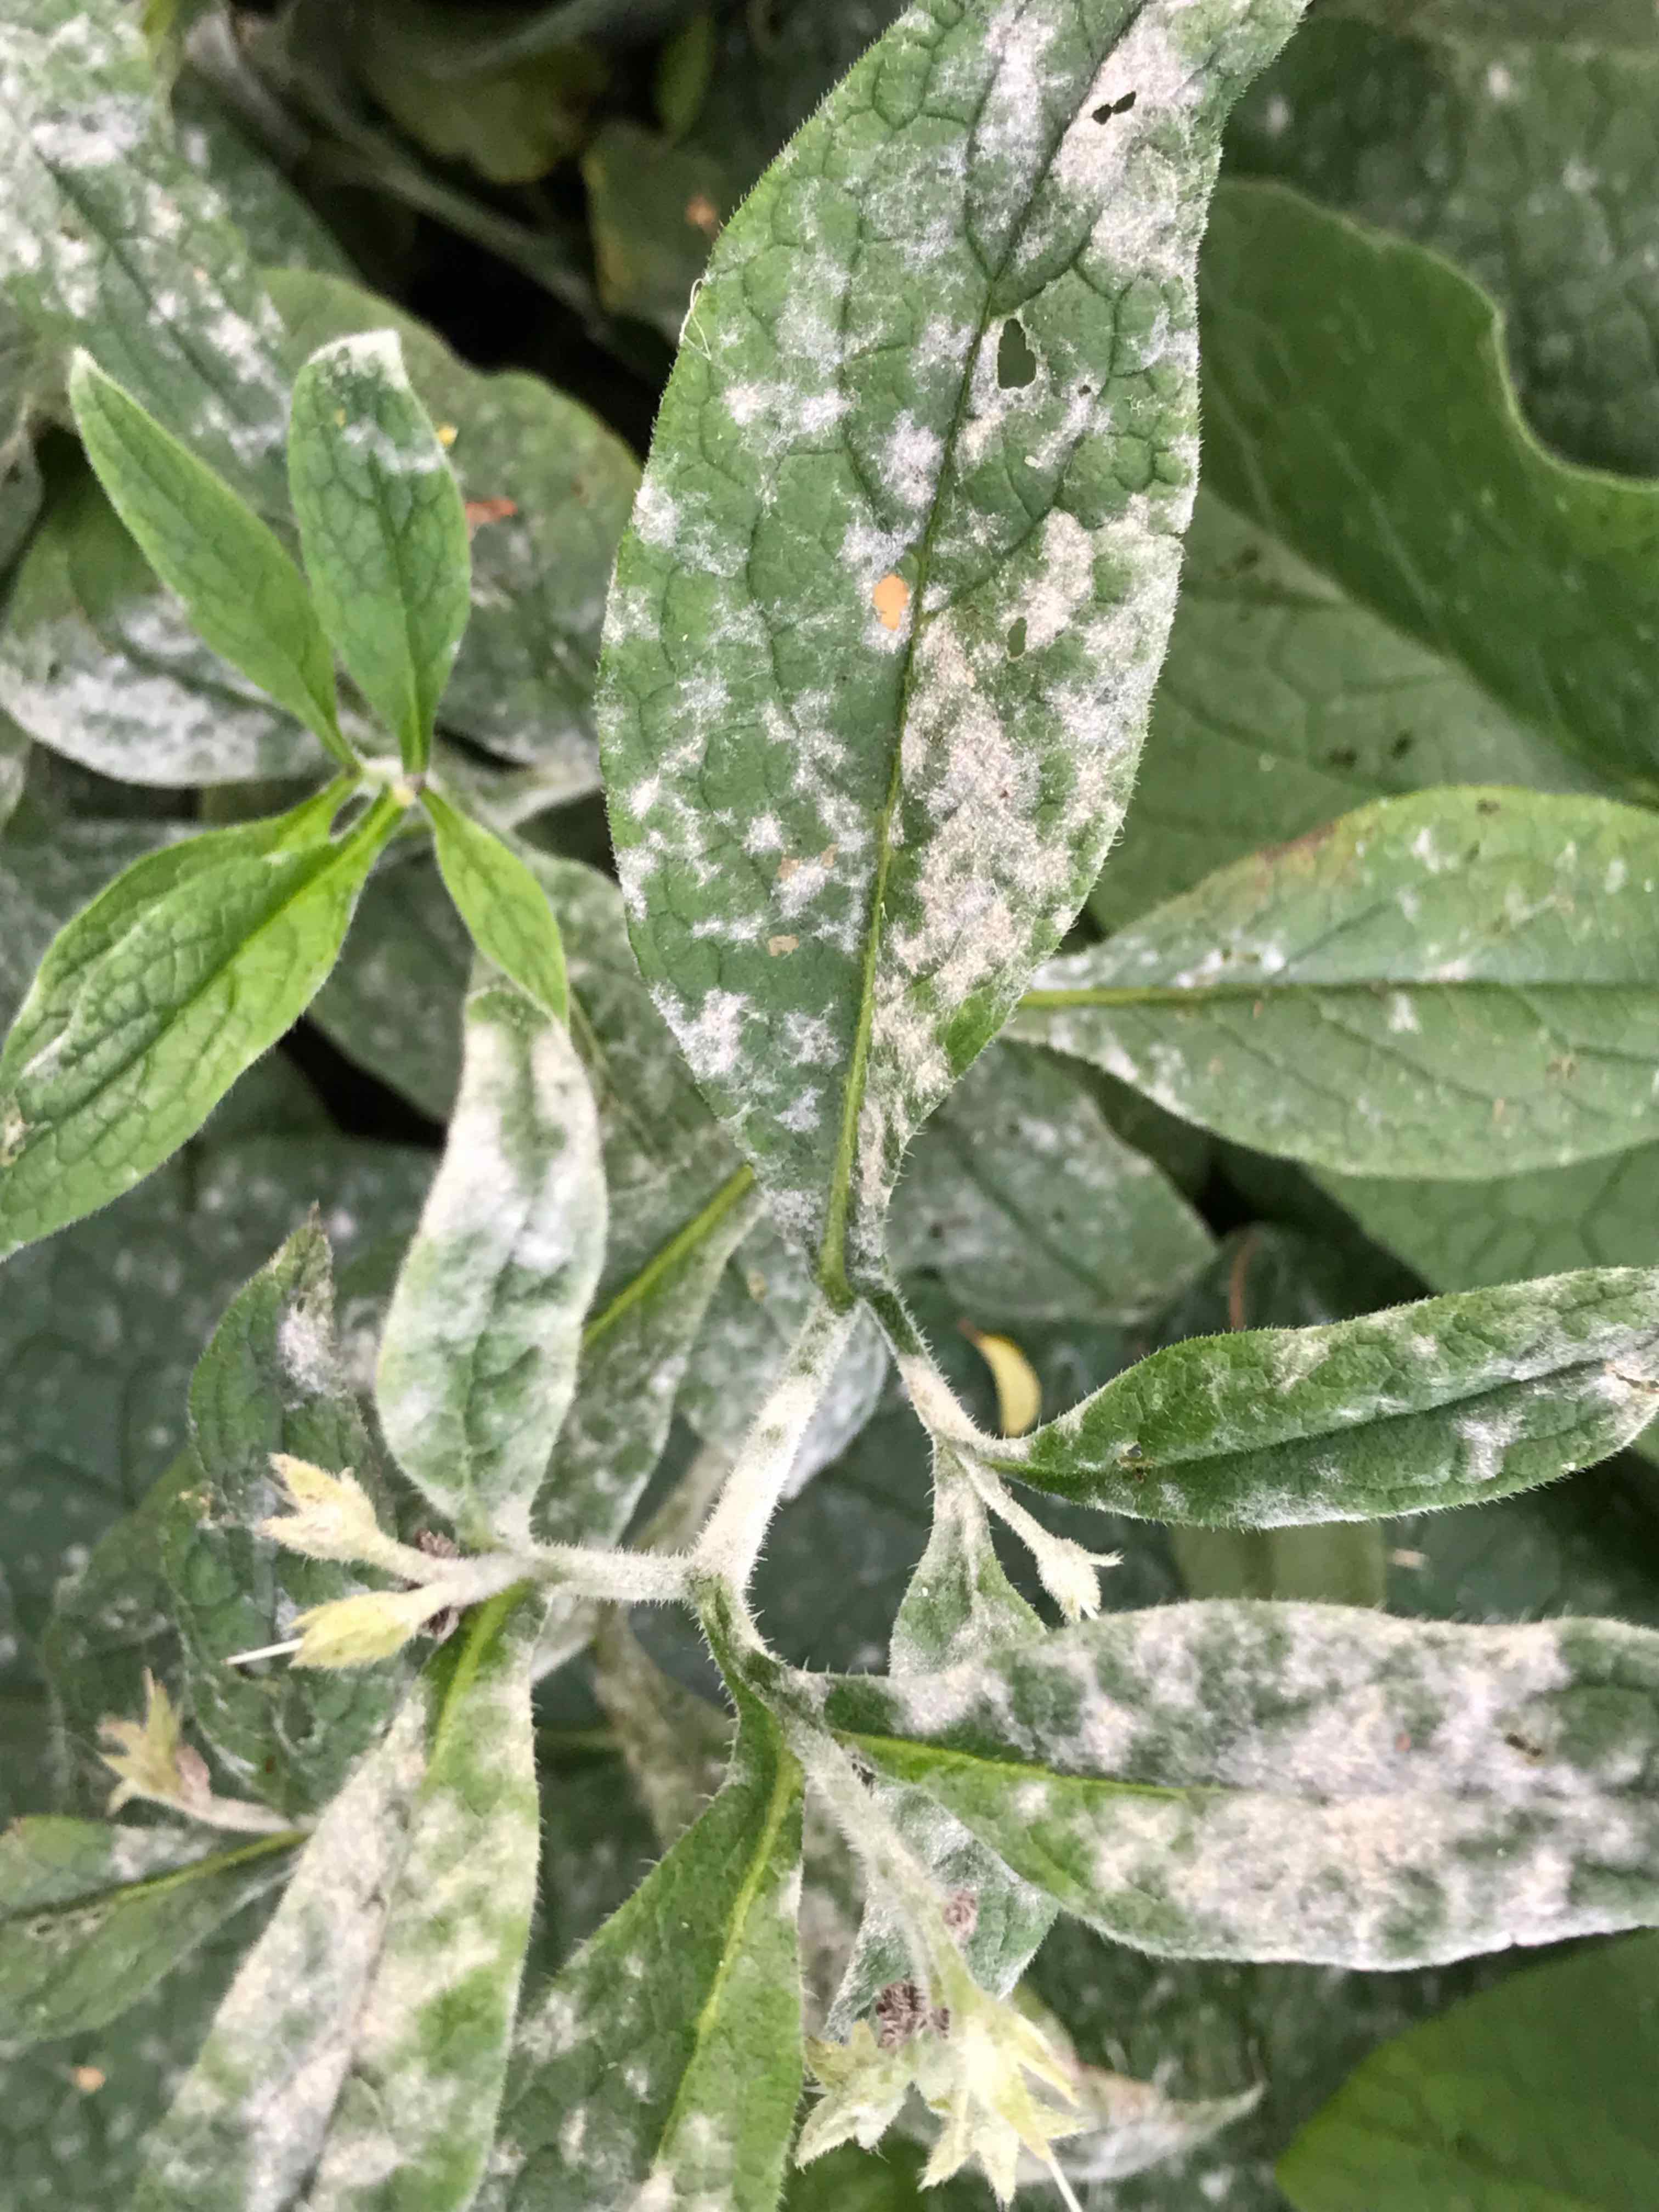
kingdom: Fungi
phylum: Ascomycota
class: Leotiomycetes
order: Helotiales
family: Erysiphaceae
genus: Golovinomyces
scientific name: Golovinomyces asperifoliorum
